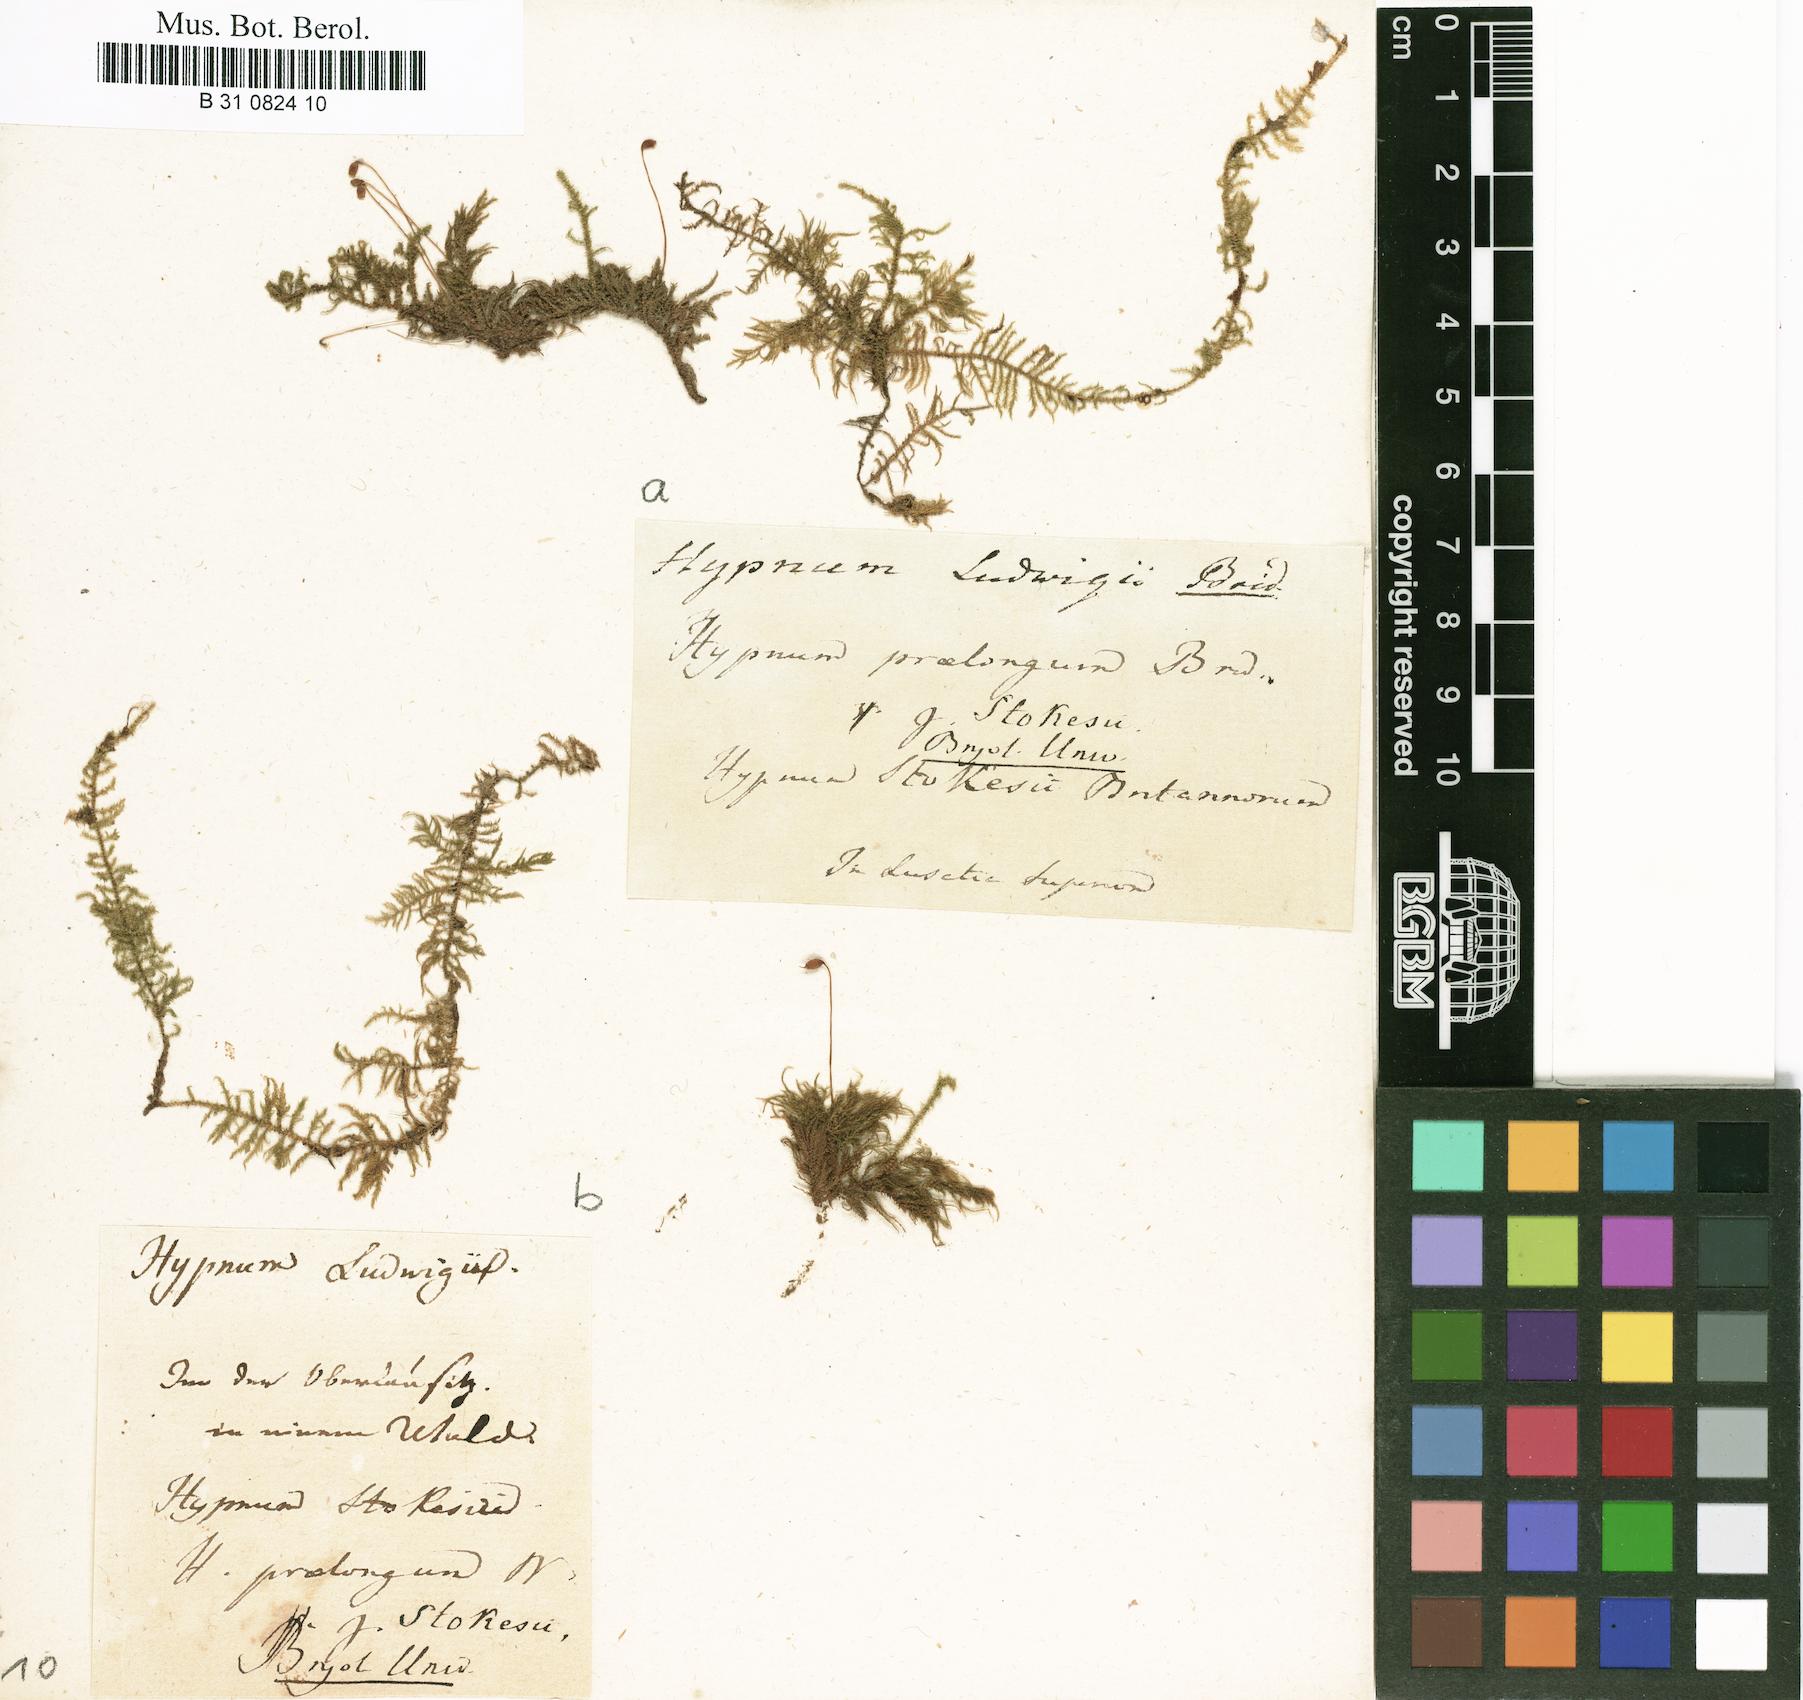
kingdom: Plantae
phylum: Bryophyta
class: Bryopsida
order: Hypnales
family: Brachytheciaceae
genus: Kindbergia
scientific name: Kindbergia praelonga
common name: Slender beaked moss
